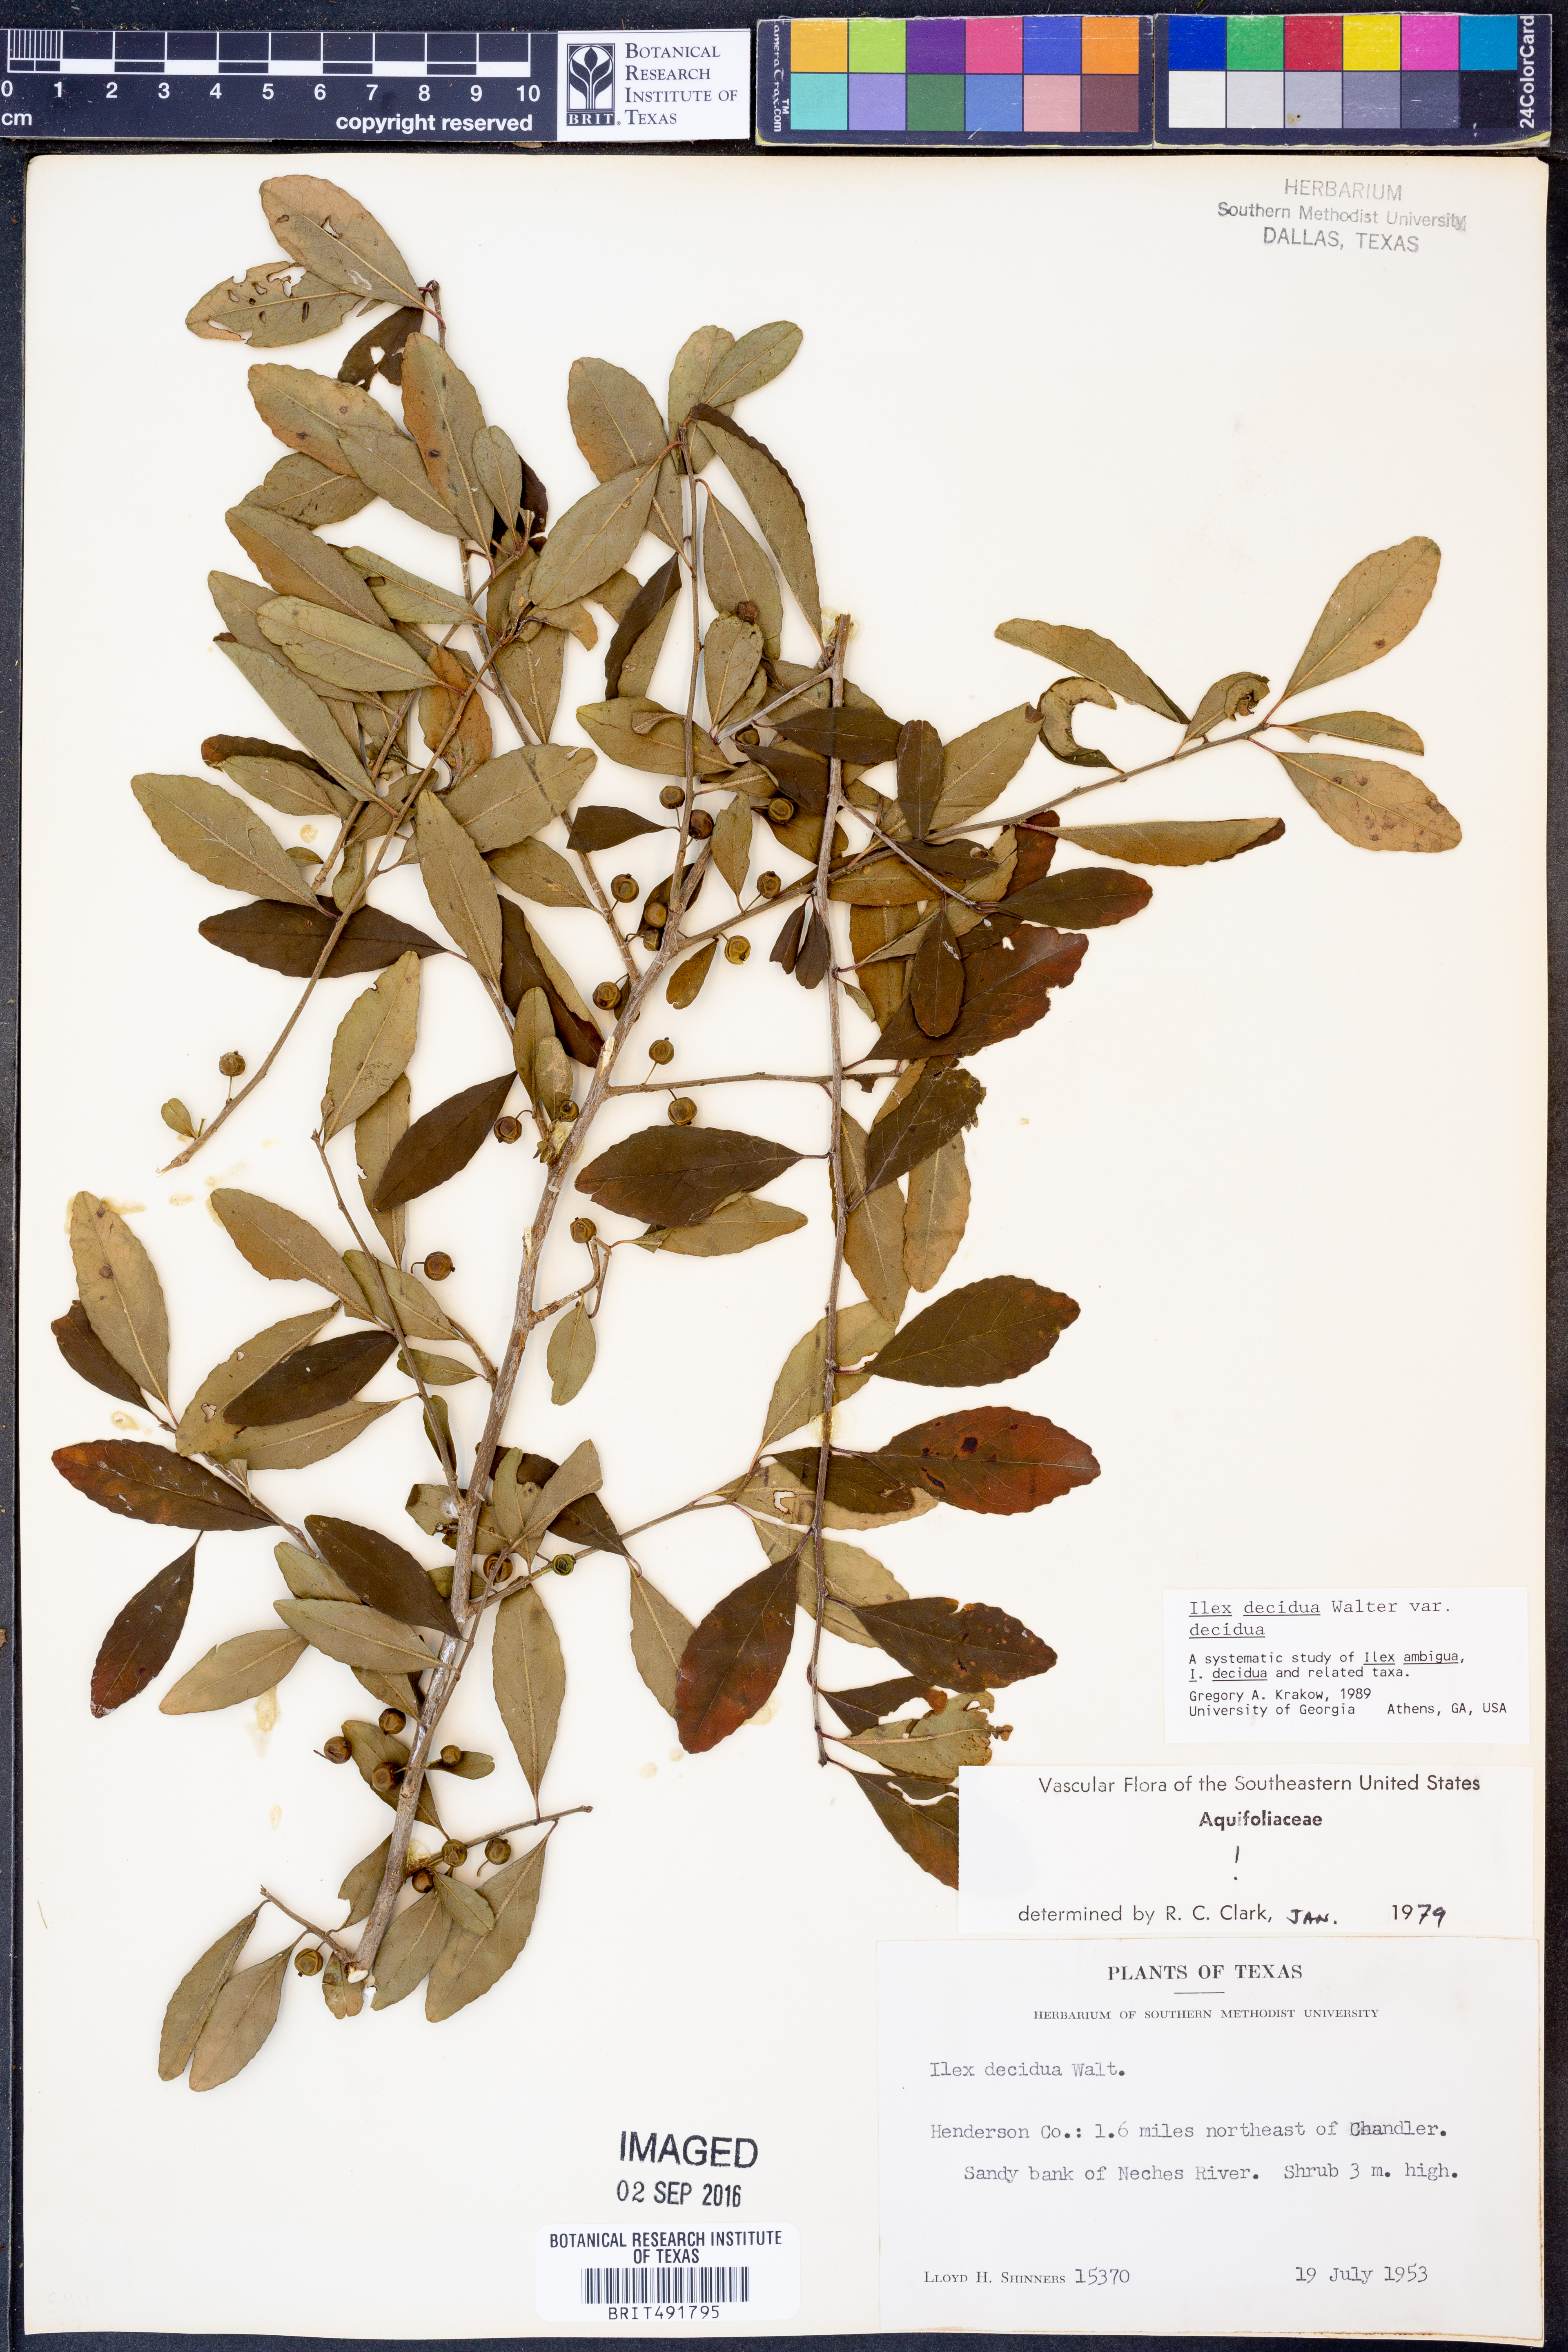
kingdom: Plantae
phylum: Tracheophyta
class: Magnoliopsida
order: Aquifoliales
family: Aquifoliaceae
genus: Ilex
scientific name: Ilex decidua
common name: Possum-haw
